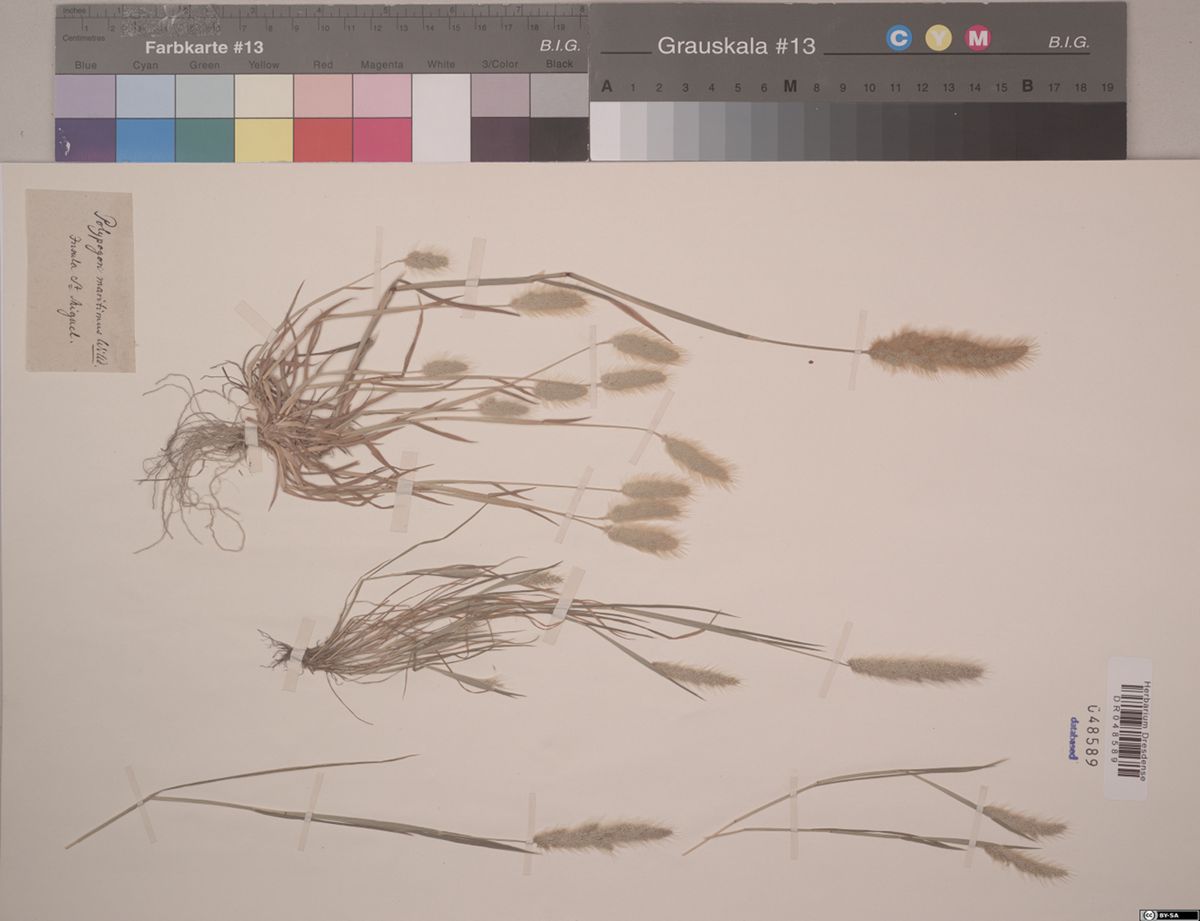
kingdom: Plantae
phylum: Tracheophyta
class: Liliopsida
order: Poales
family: Poaceae
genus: Polypogon
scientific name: Polypogon maritimus
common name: Mediterranean rabbitsfoot grass
